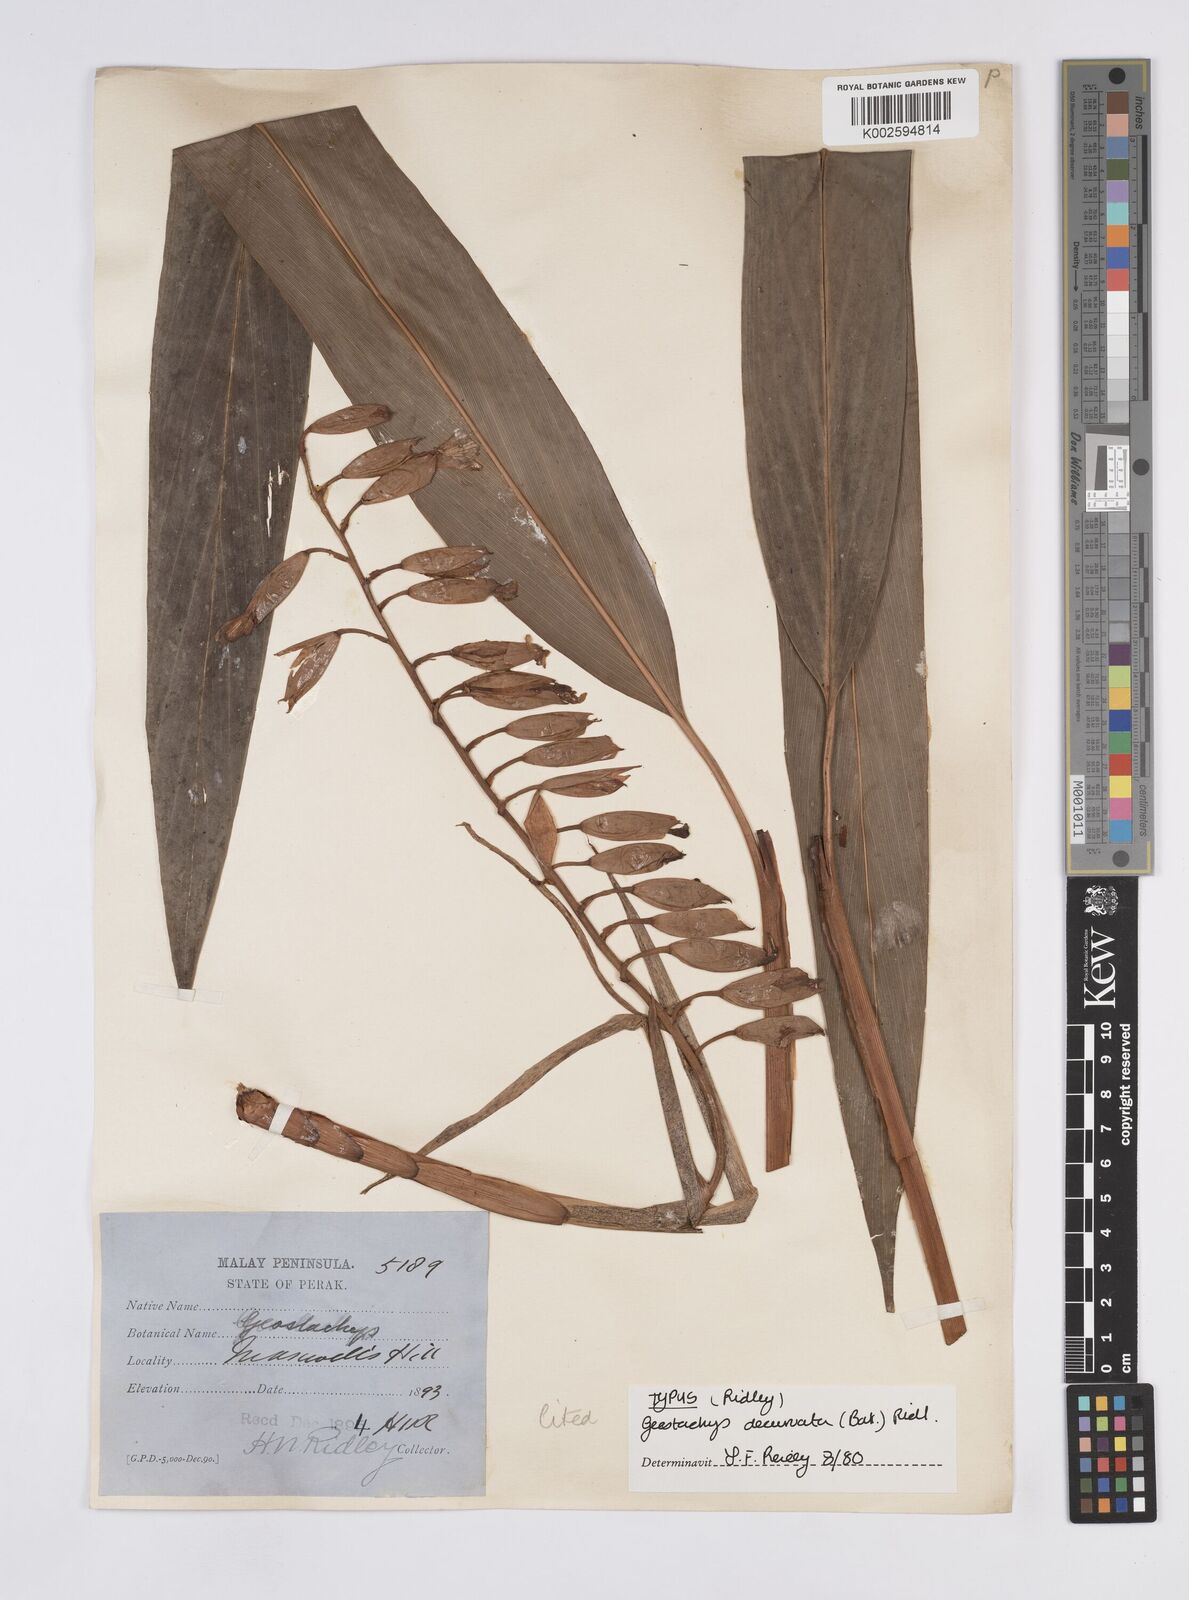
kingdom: Plantae
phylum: Tracheophyta
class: Liliopsida
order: Zingiberales
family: Zingiberaceae
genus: Geostachys
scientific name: Geostachys decurvata
